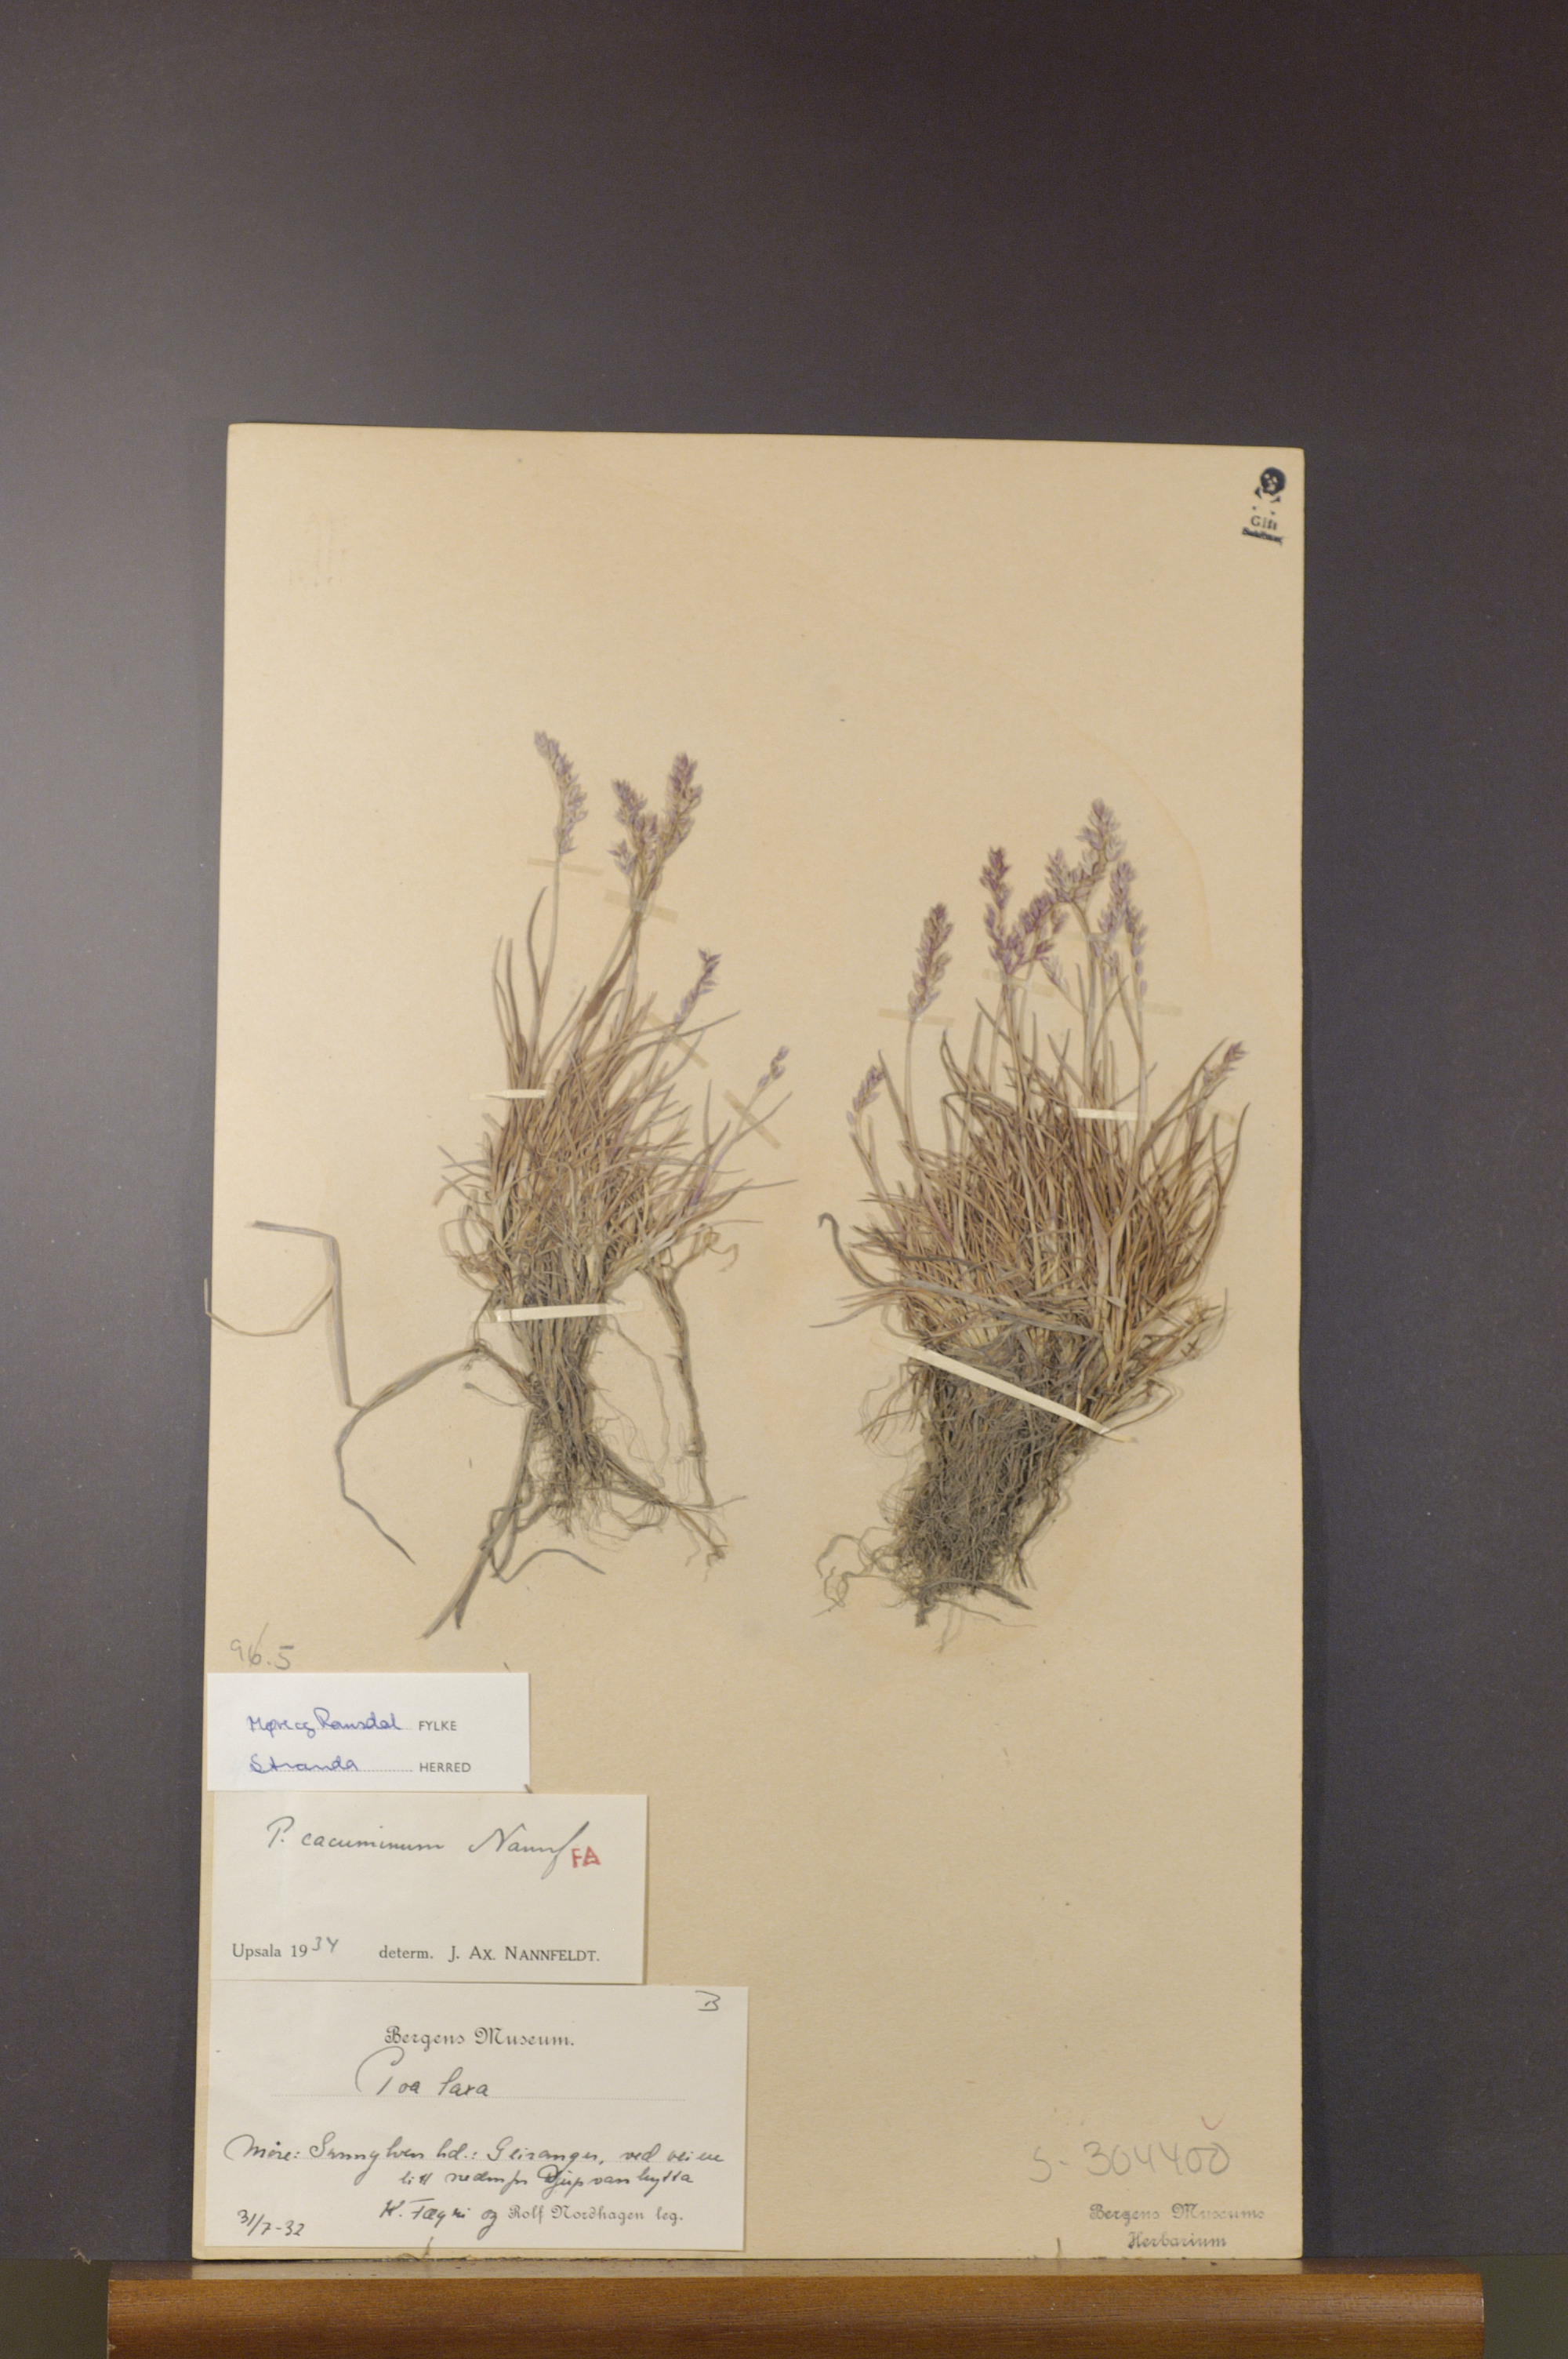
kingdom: Plantae
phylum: Tracheophyta
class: Liliopsida
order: Poales
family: Poaceae
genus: Poa
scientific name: Poa flexuosa
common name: Wavy meadow-grass
